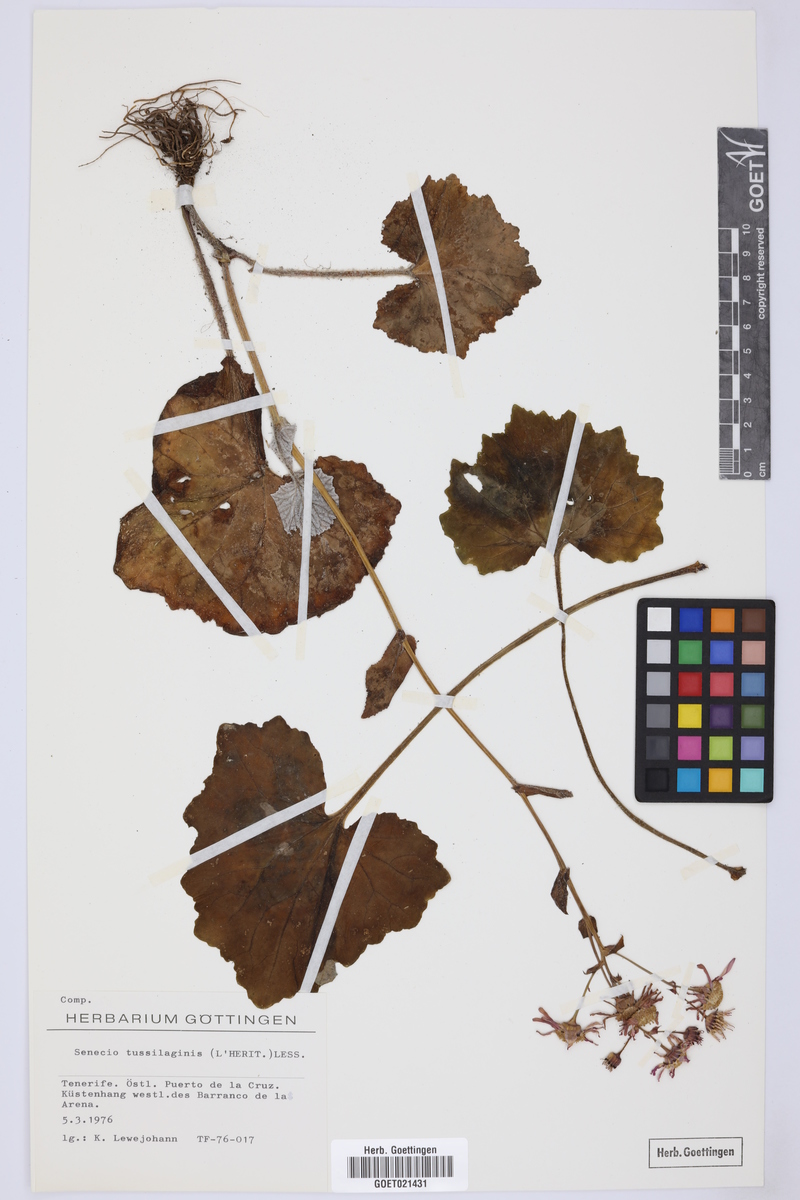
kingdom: Plantae
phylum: Tracheophyta
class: Magnoliopsida
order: Asterales
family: Asteraceae
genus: Pericallis
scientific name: Pericallis tussilaginis
